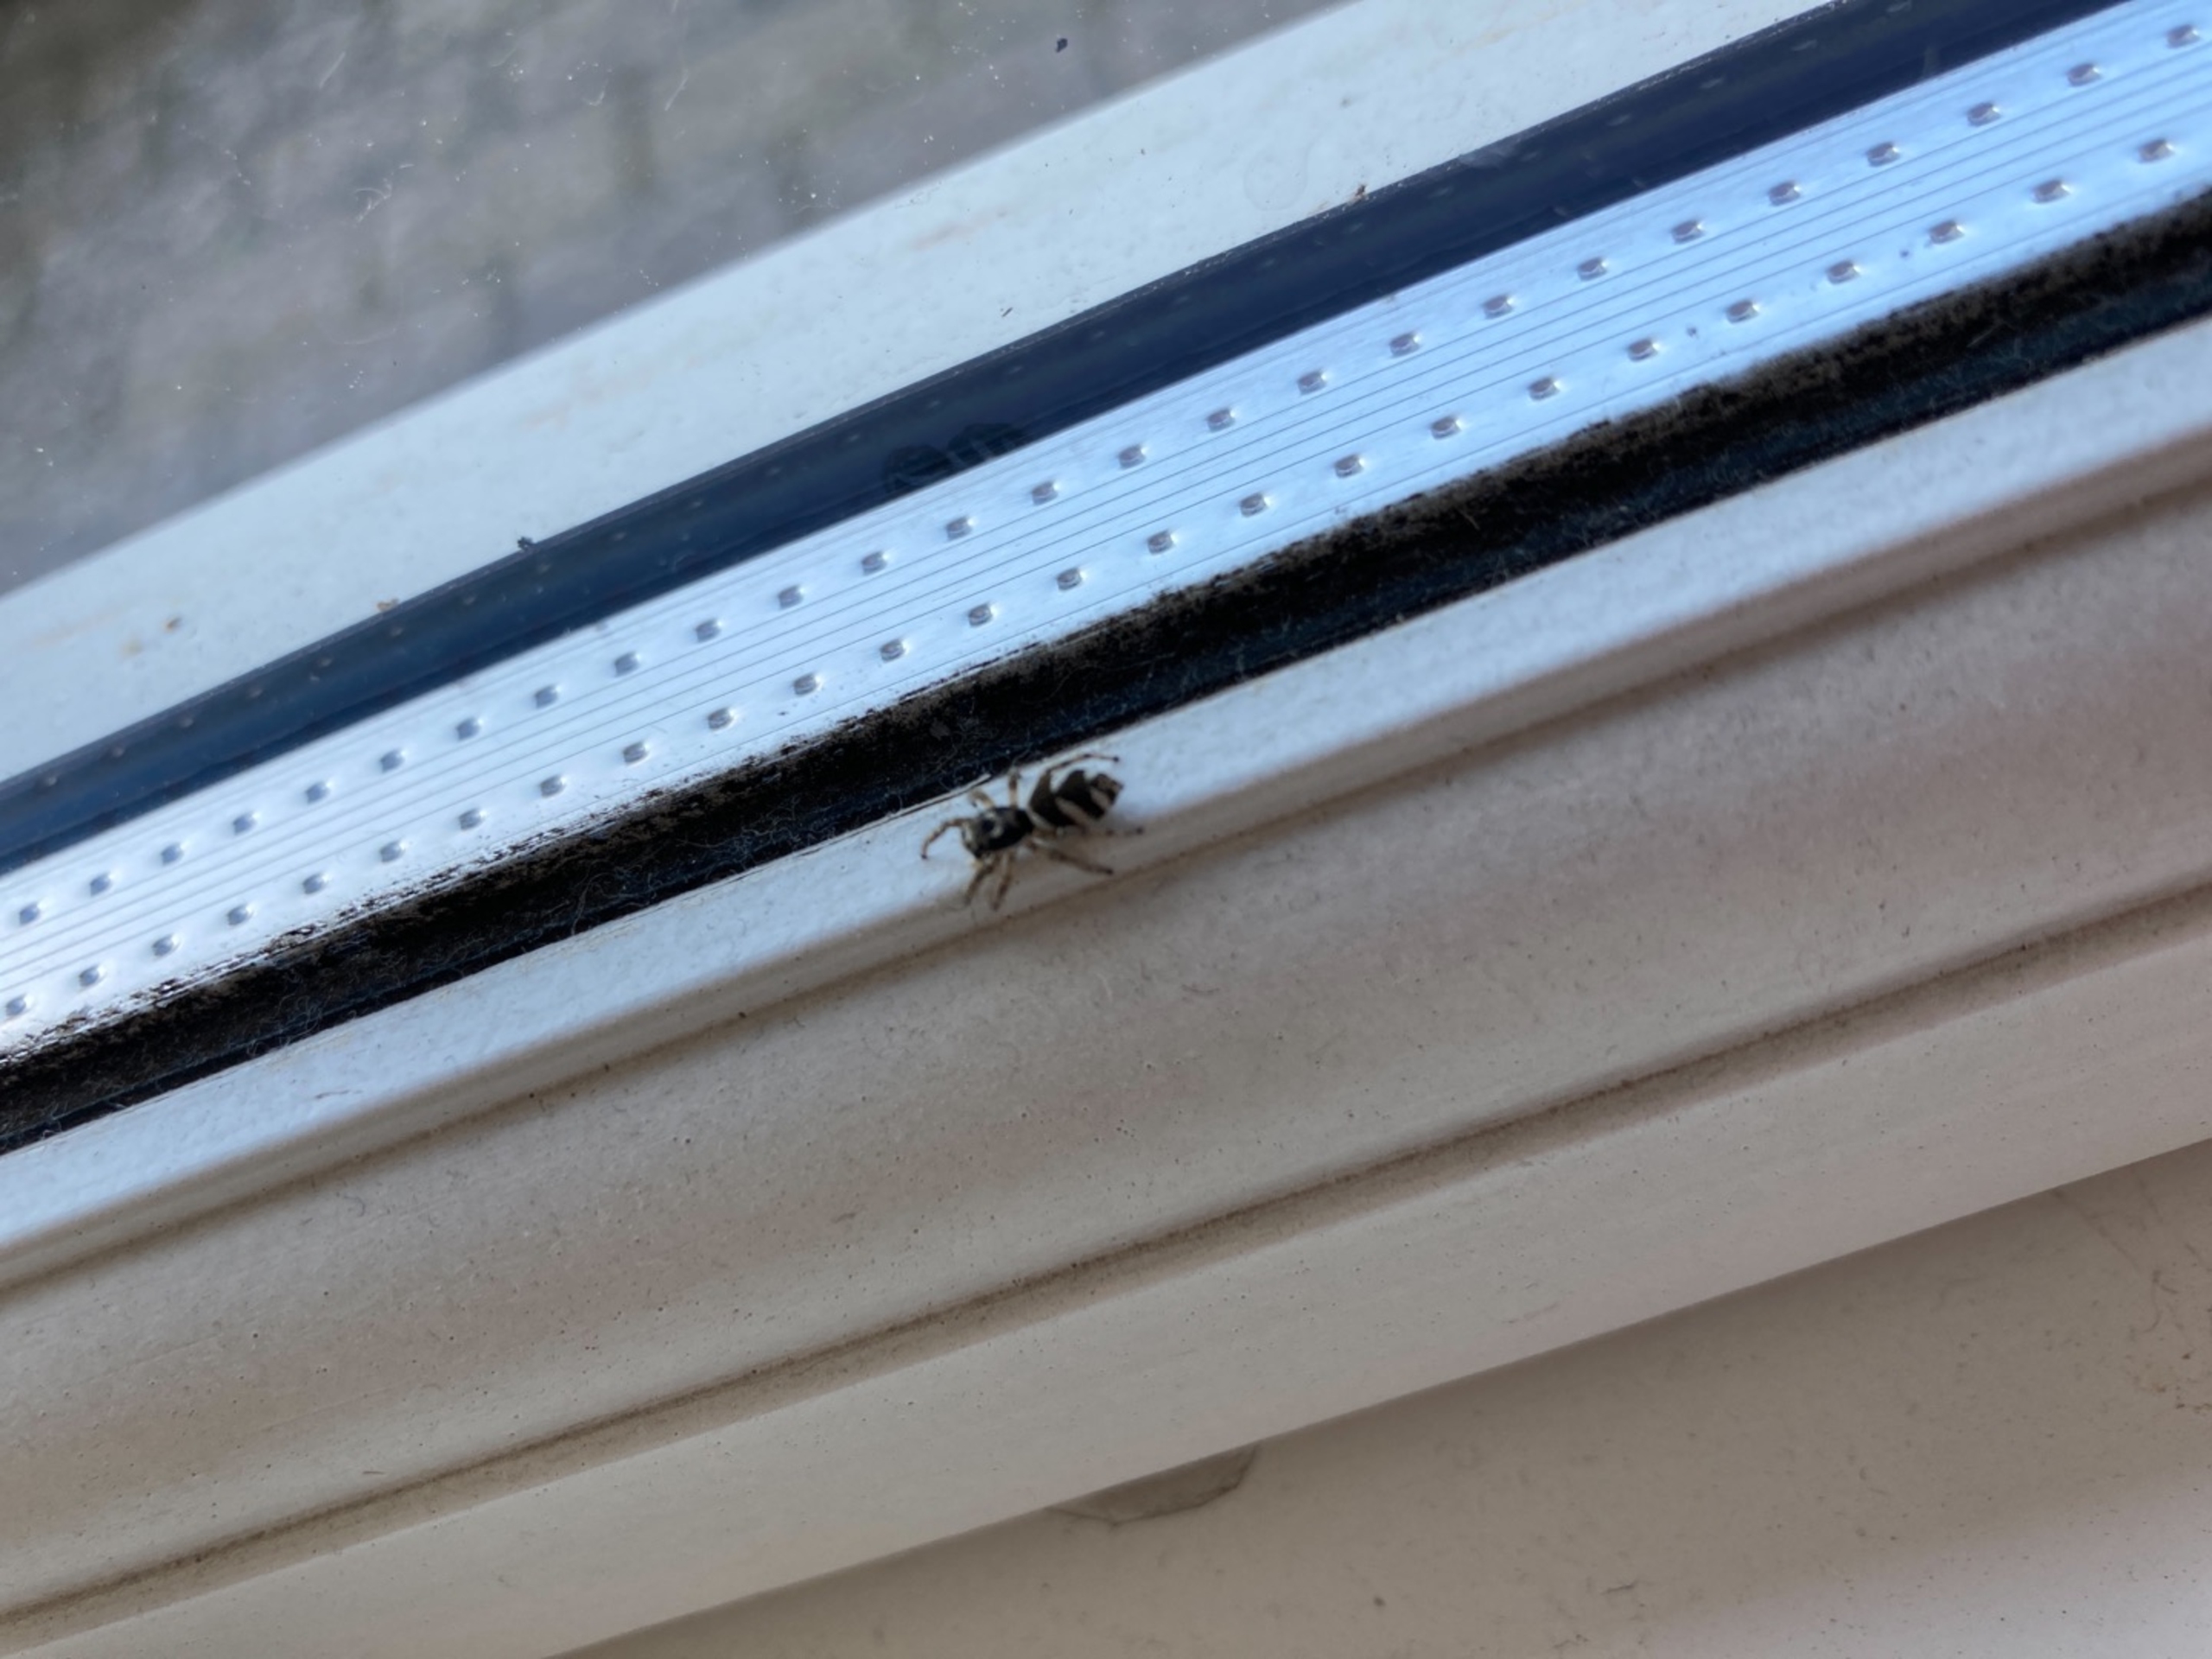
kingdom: Animalia
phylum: Arthropoda
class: Arachnida
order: Araneae
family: Salticidae
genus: Salticus
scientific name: Salticus scenicus
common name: Almindelig zebraedderkop
